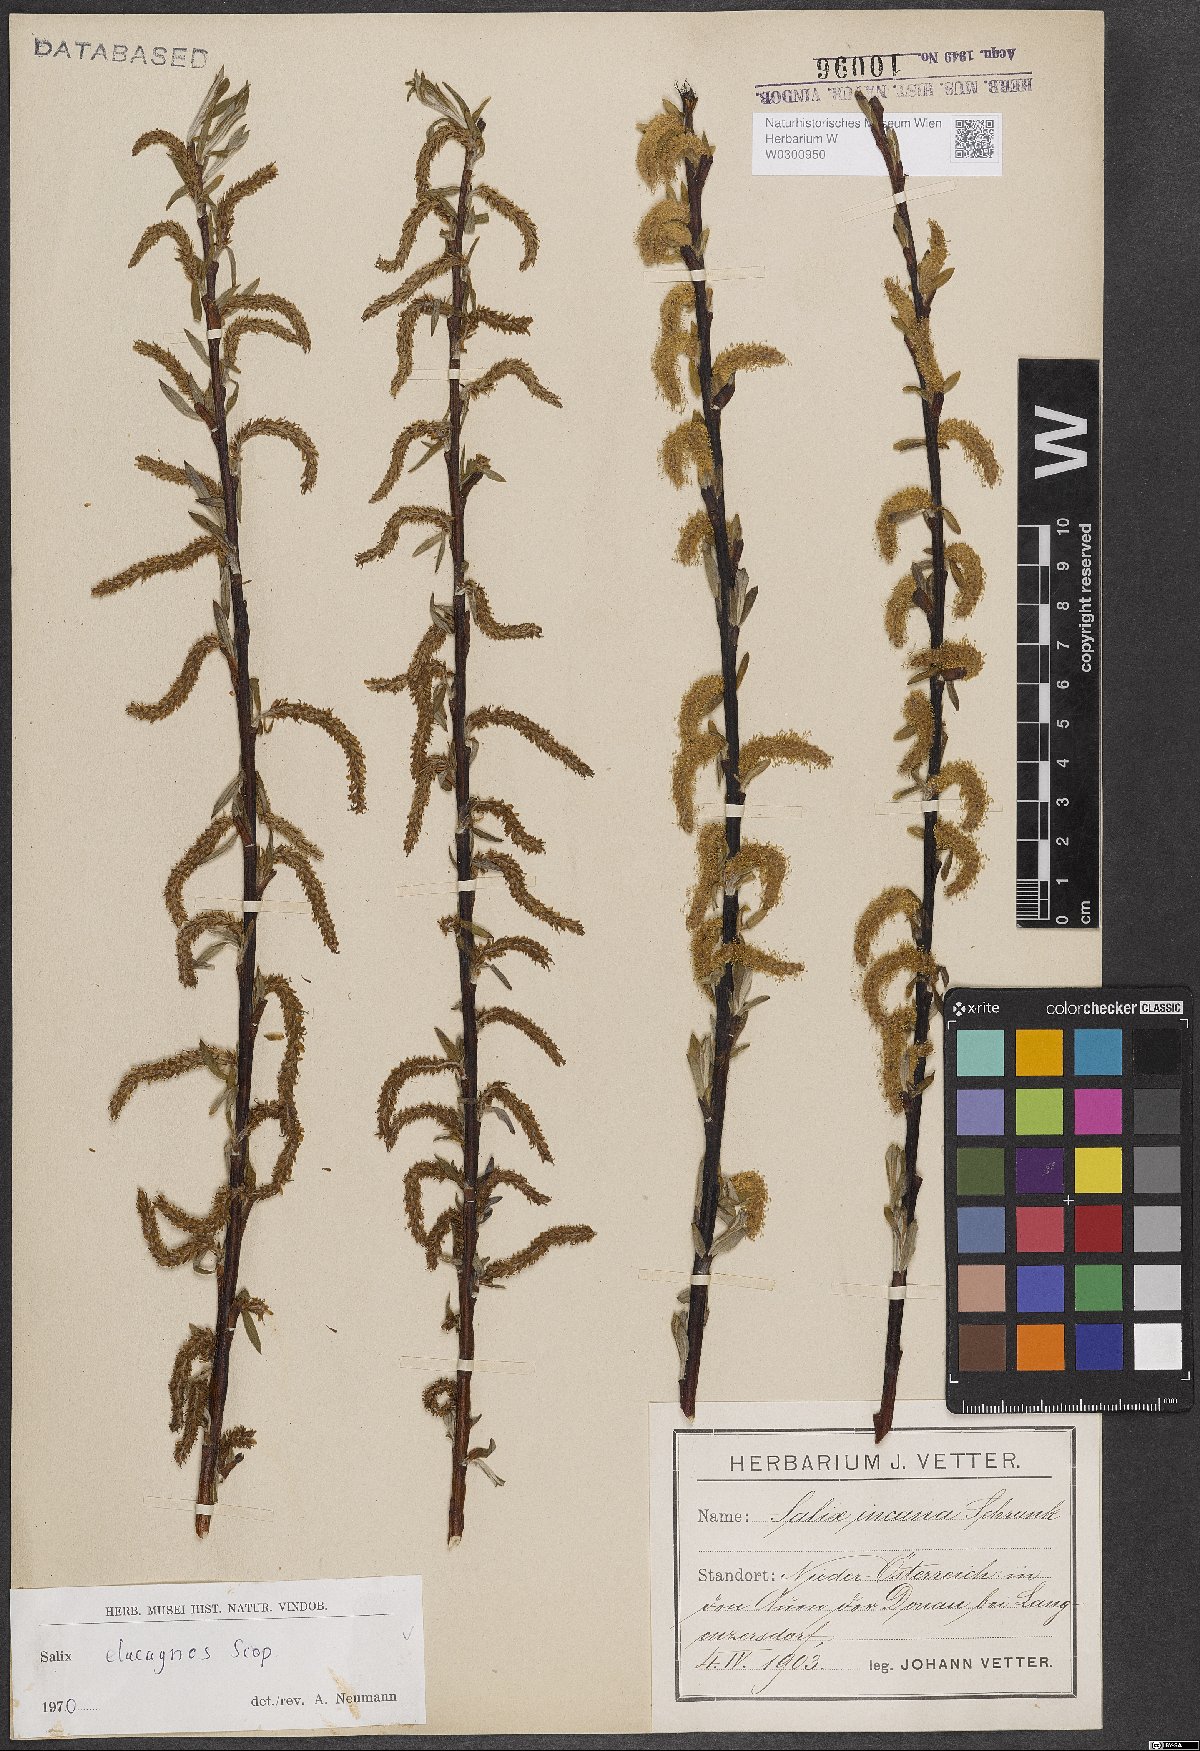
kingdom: Plantae
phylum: Tracheophyta
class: Magnoliopsida
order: Malpighiales
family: Salicaceae
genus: Salix
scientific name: Salix eleagnos
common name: Elaeagnus willow
